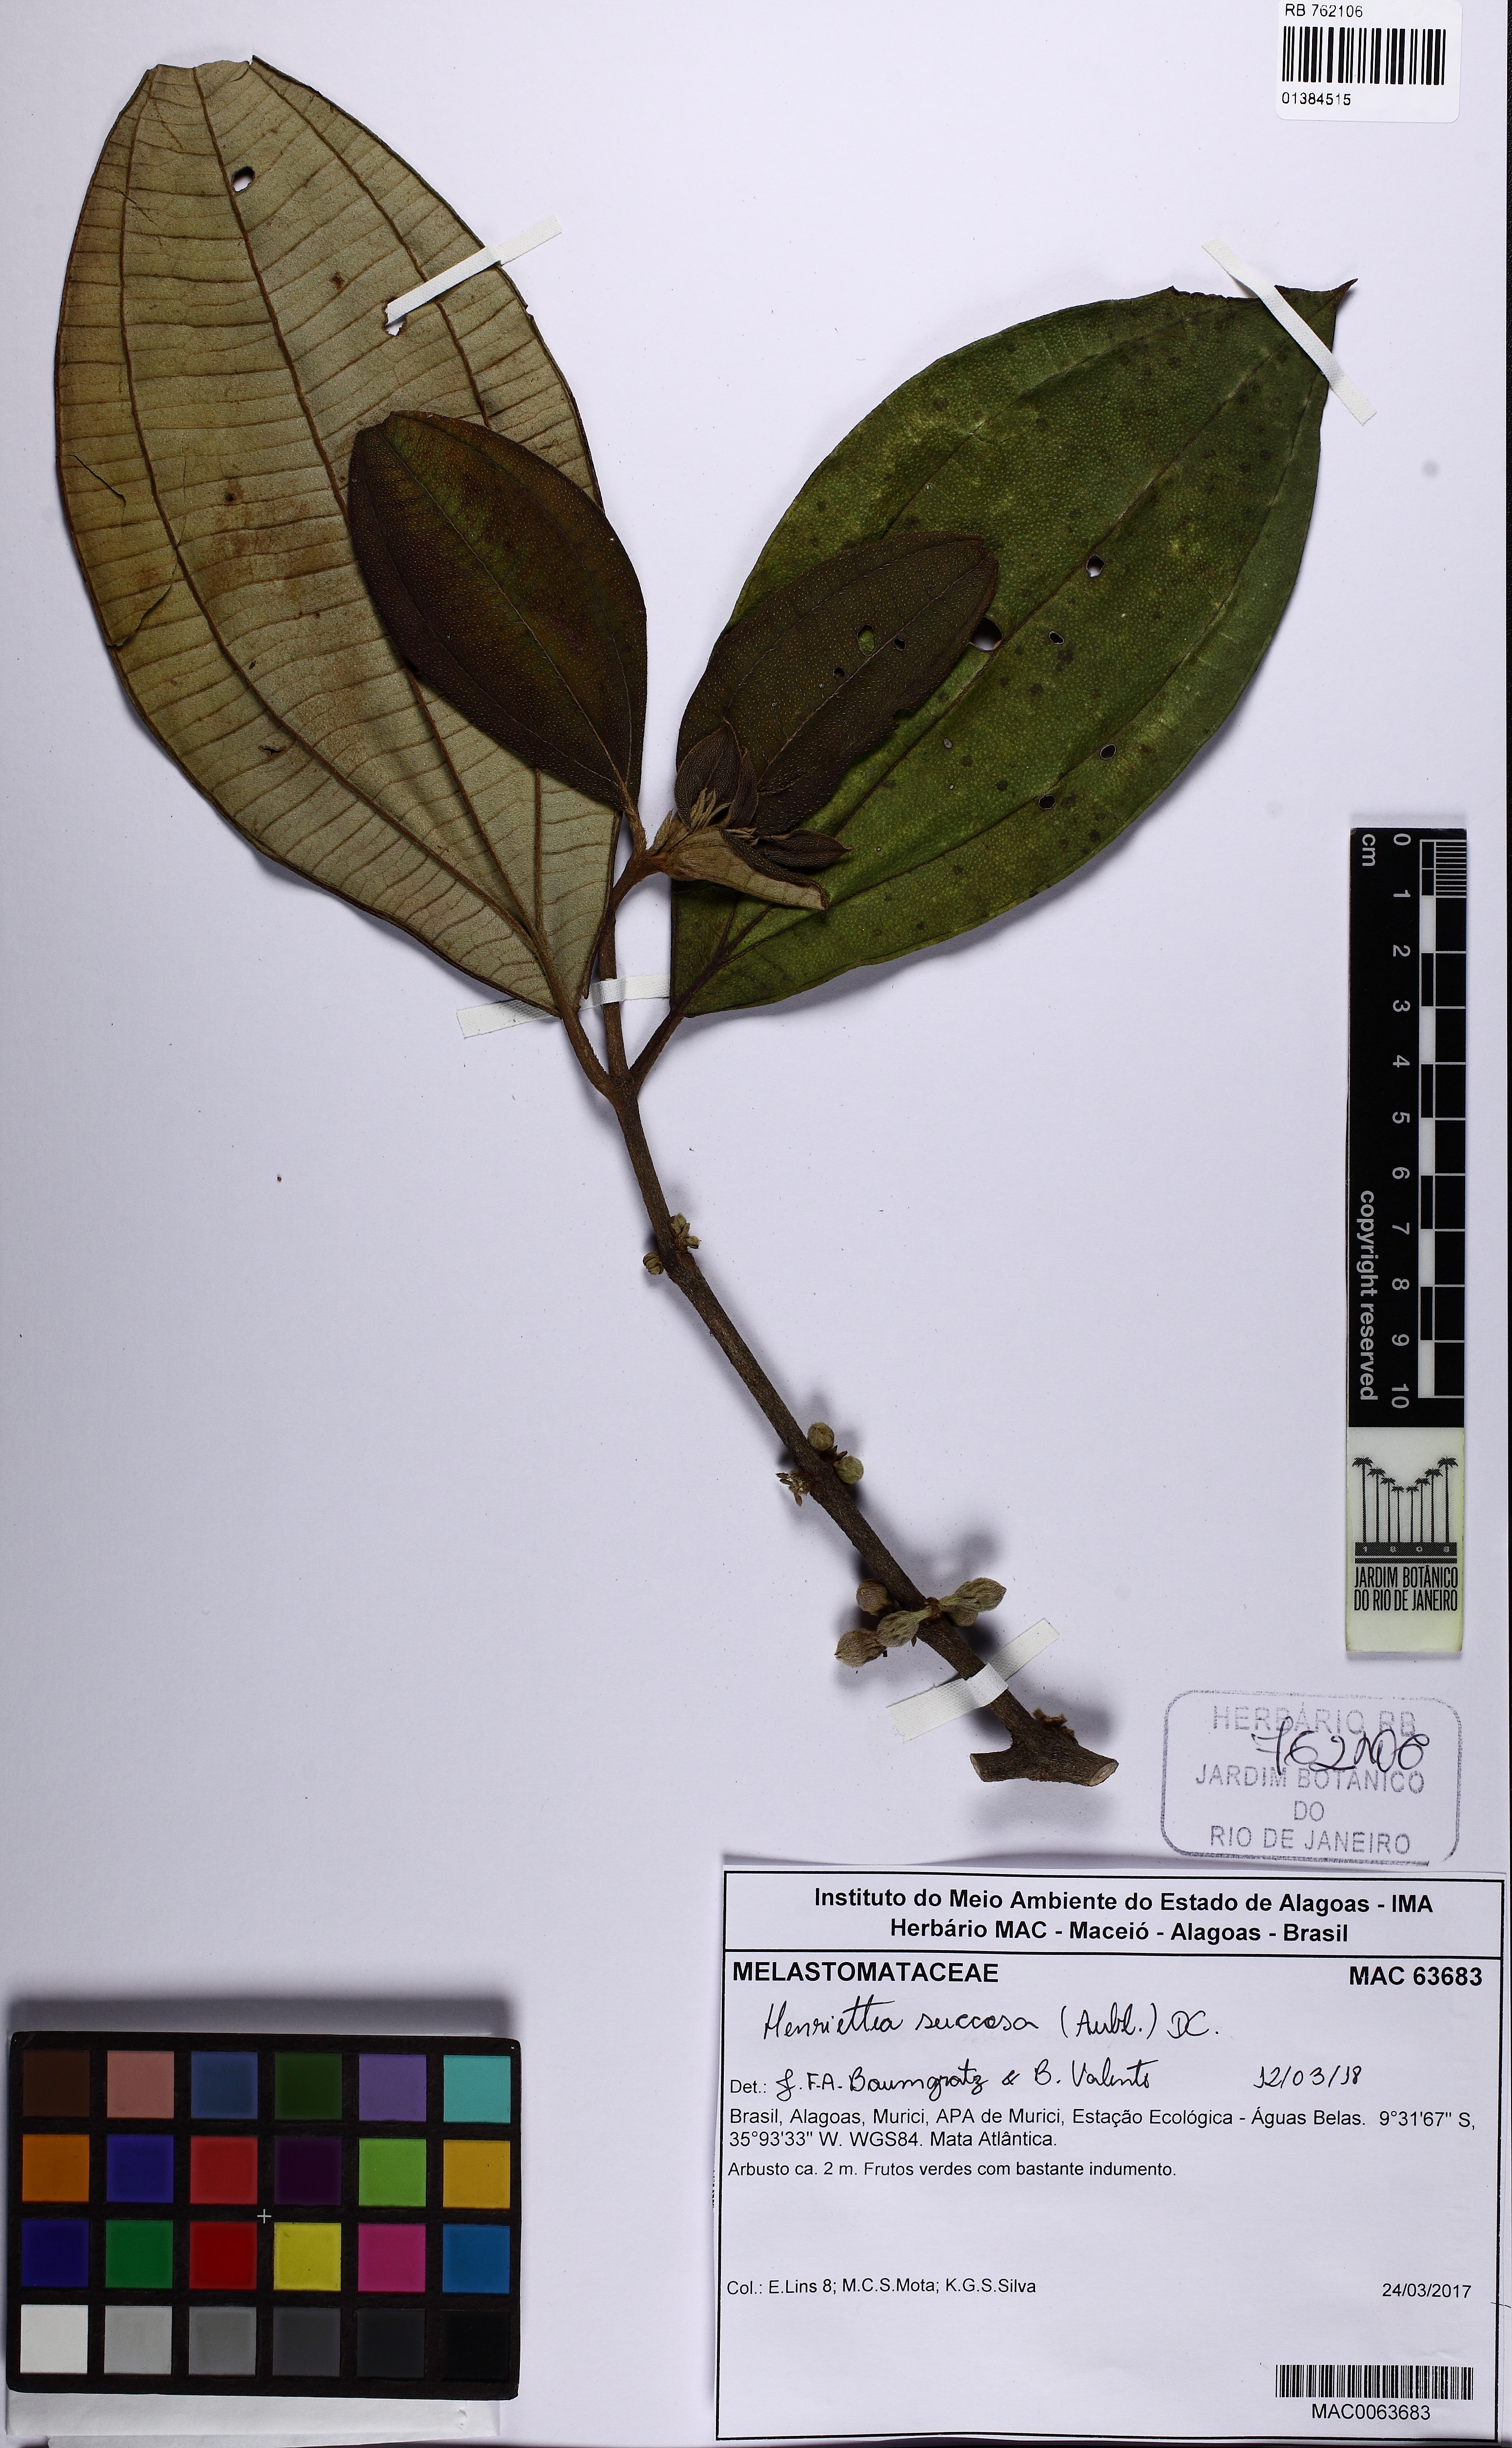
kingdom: Plantae
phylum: Tracheophyta
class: Magnoliopsida
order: Myrtales
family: Melastomataceae
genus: Henriettea
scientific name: Henriettea succosa
